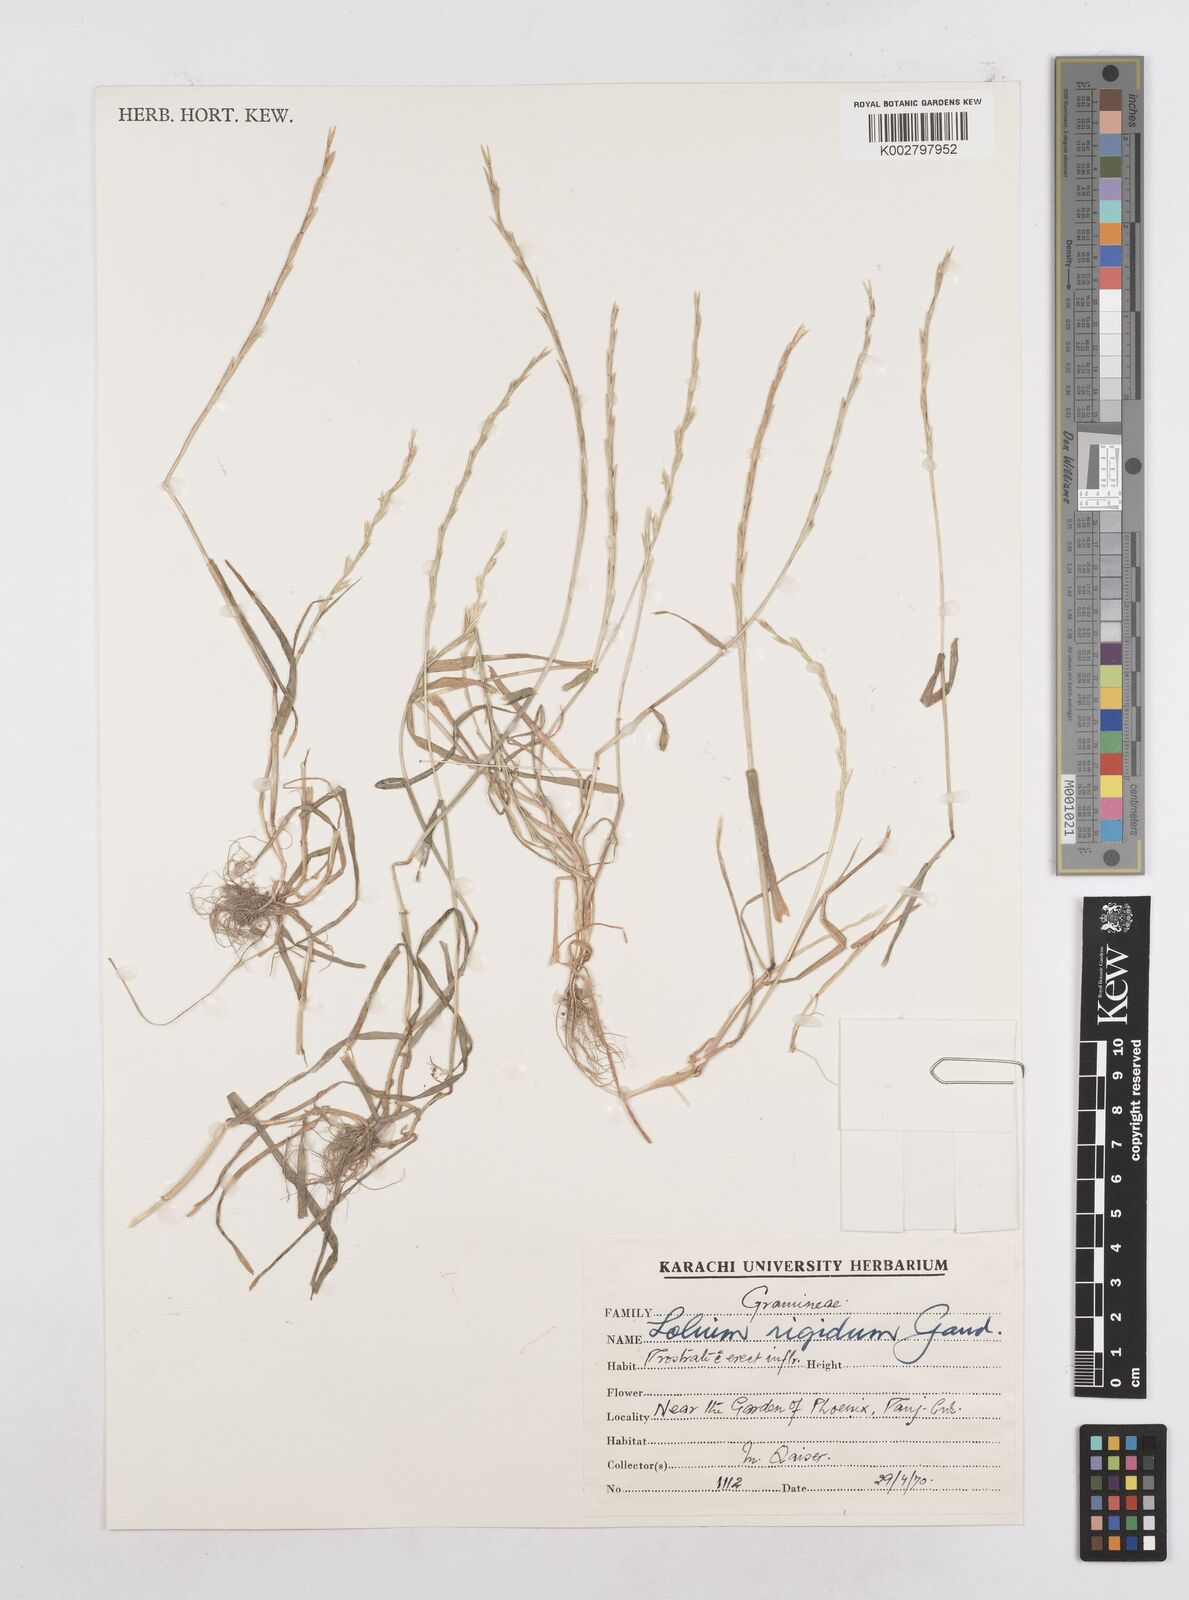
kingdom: Plantae
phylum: Tracheophyta
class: Liliopsida
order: Poales
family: Poaceae
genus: Lolium
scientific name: Lolium rigidum
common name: Wimmera ryegrass
